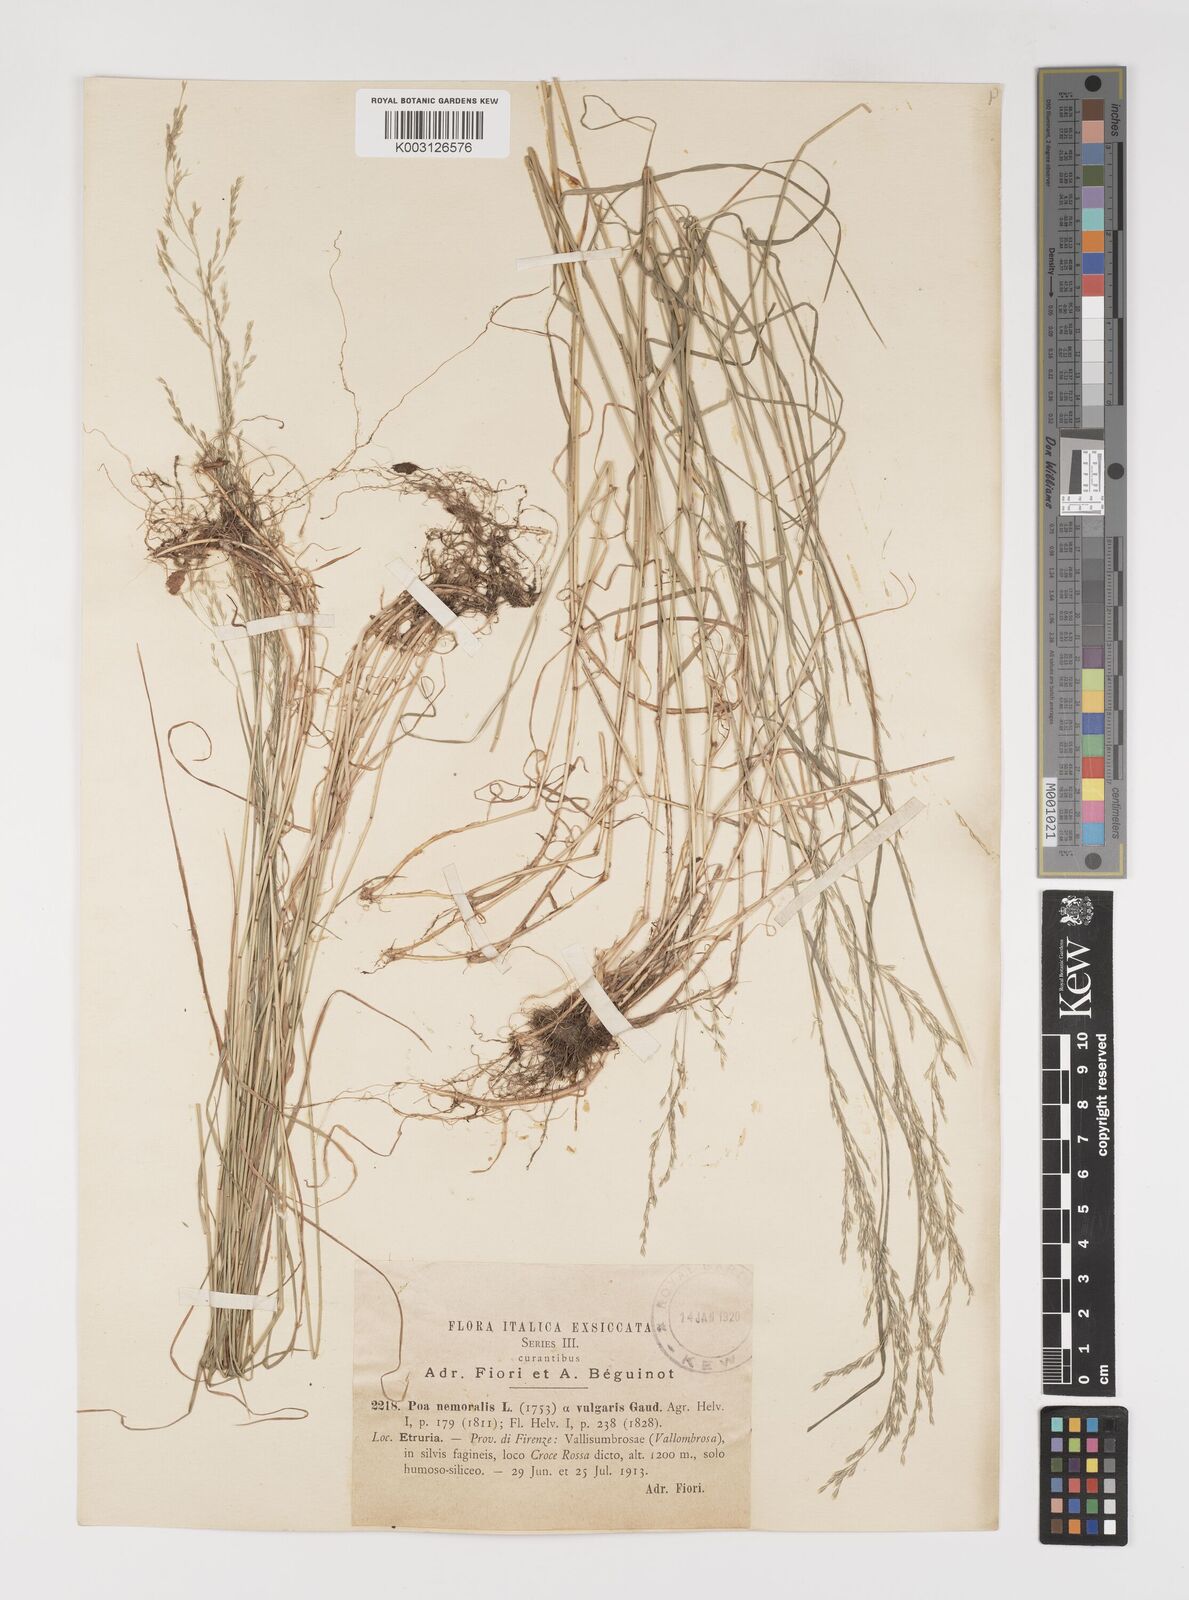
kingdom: Plantae
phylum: Tracheophyta
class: Liliopsida
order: Poales
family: Poaceae
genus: Poa
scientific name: Poa nemoralis
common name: Wood bluegrass
